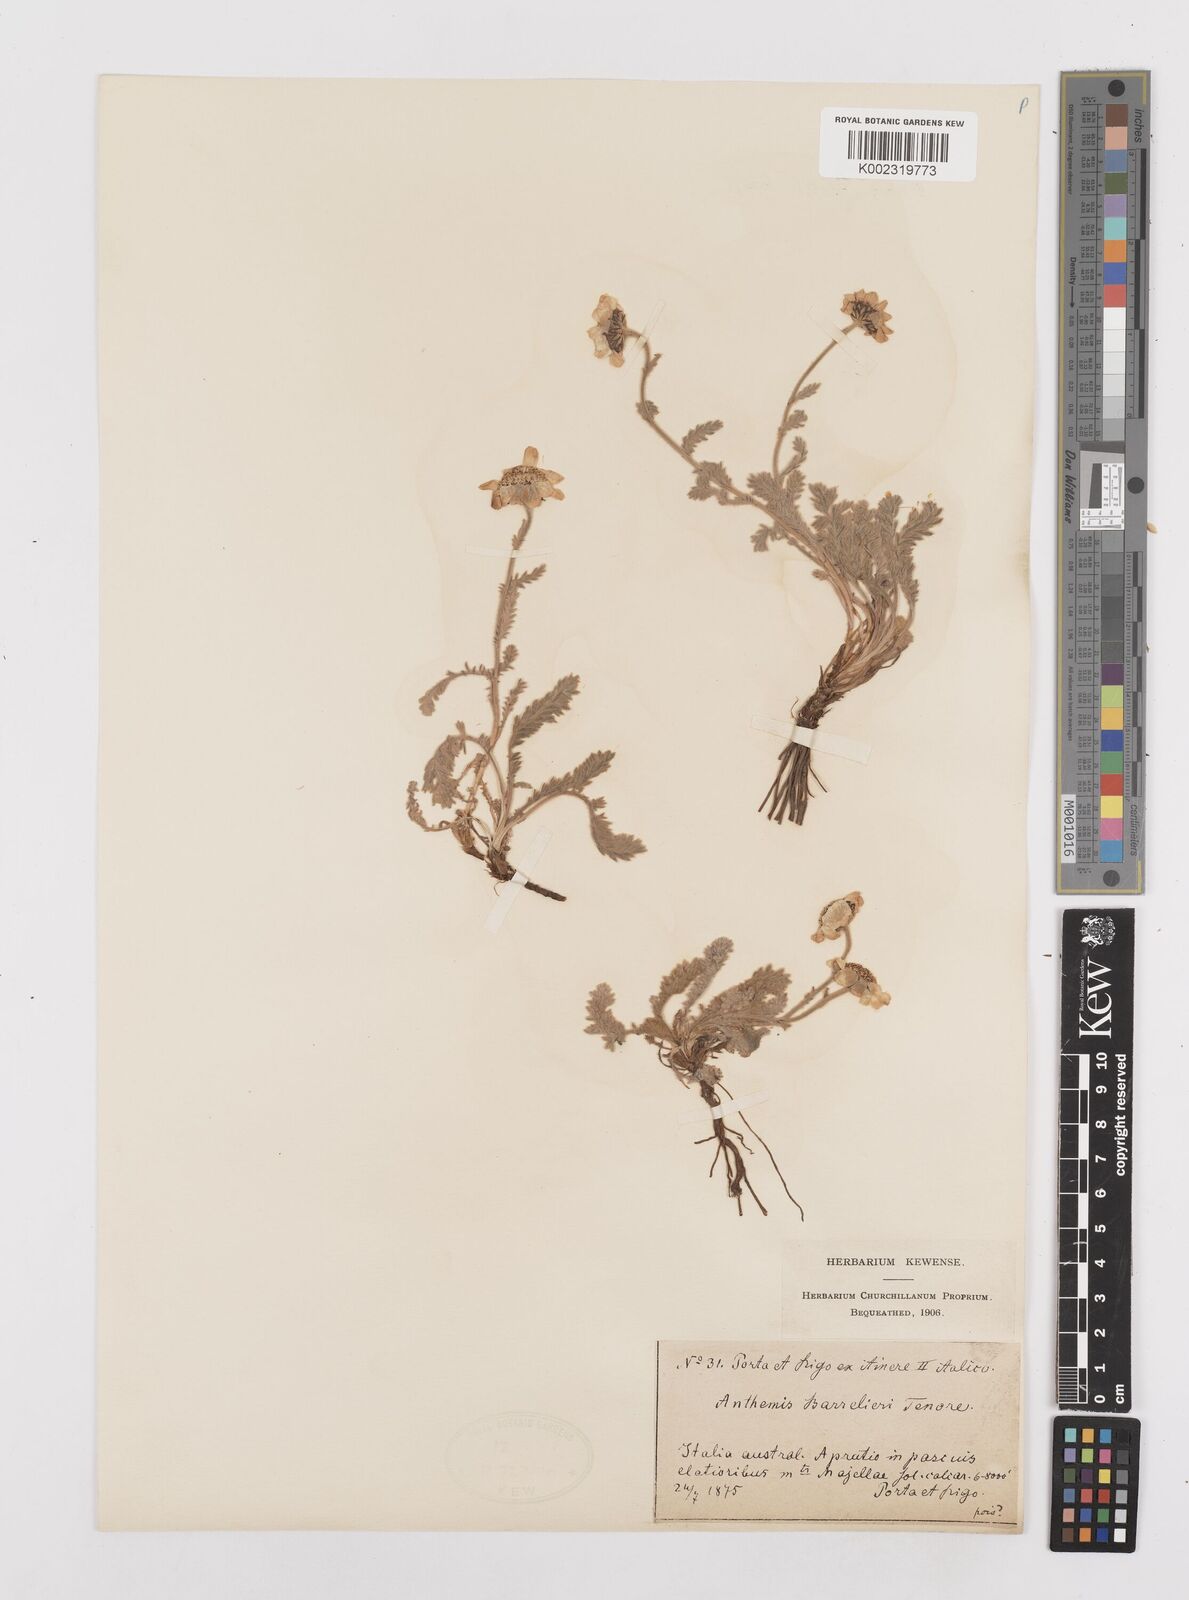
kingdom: Plantae
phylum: Tracheophyta
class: Magnoliopsida
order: Asterales
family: Asteraceae
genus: Achillea
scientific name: Achillea barrelieri
